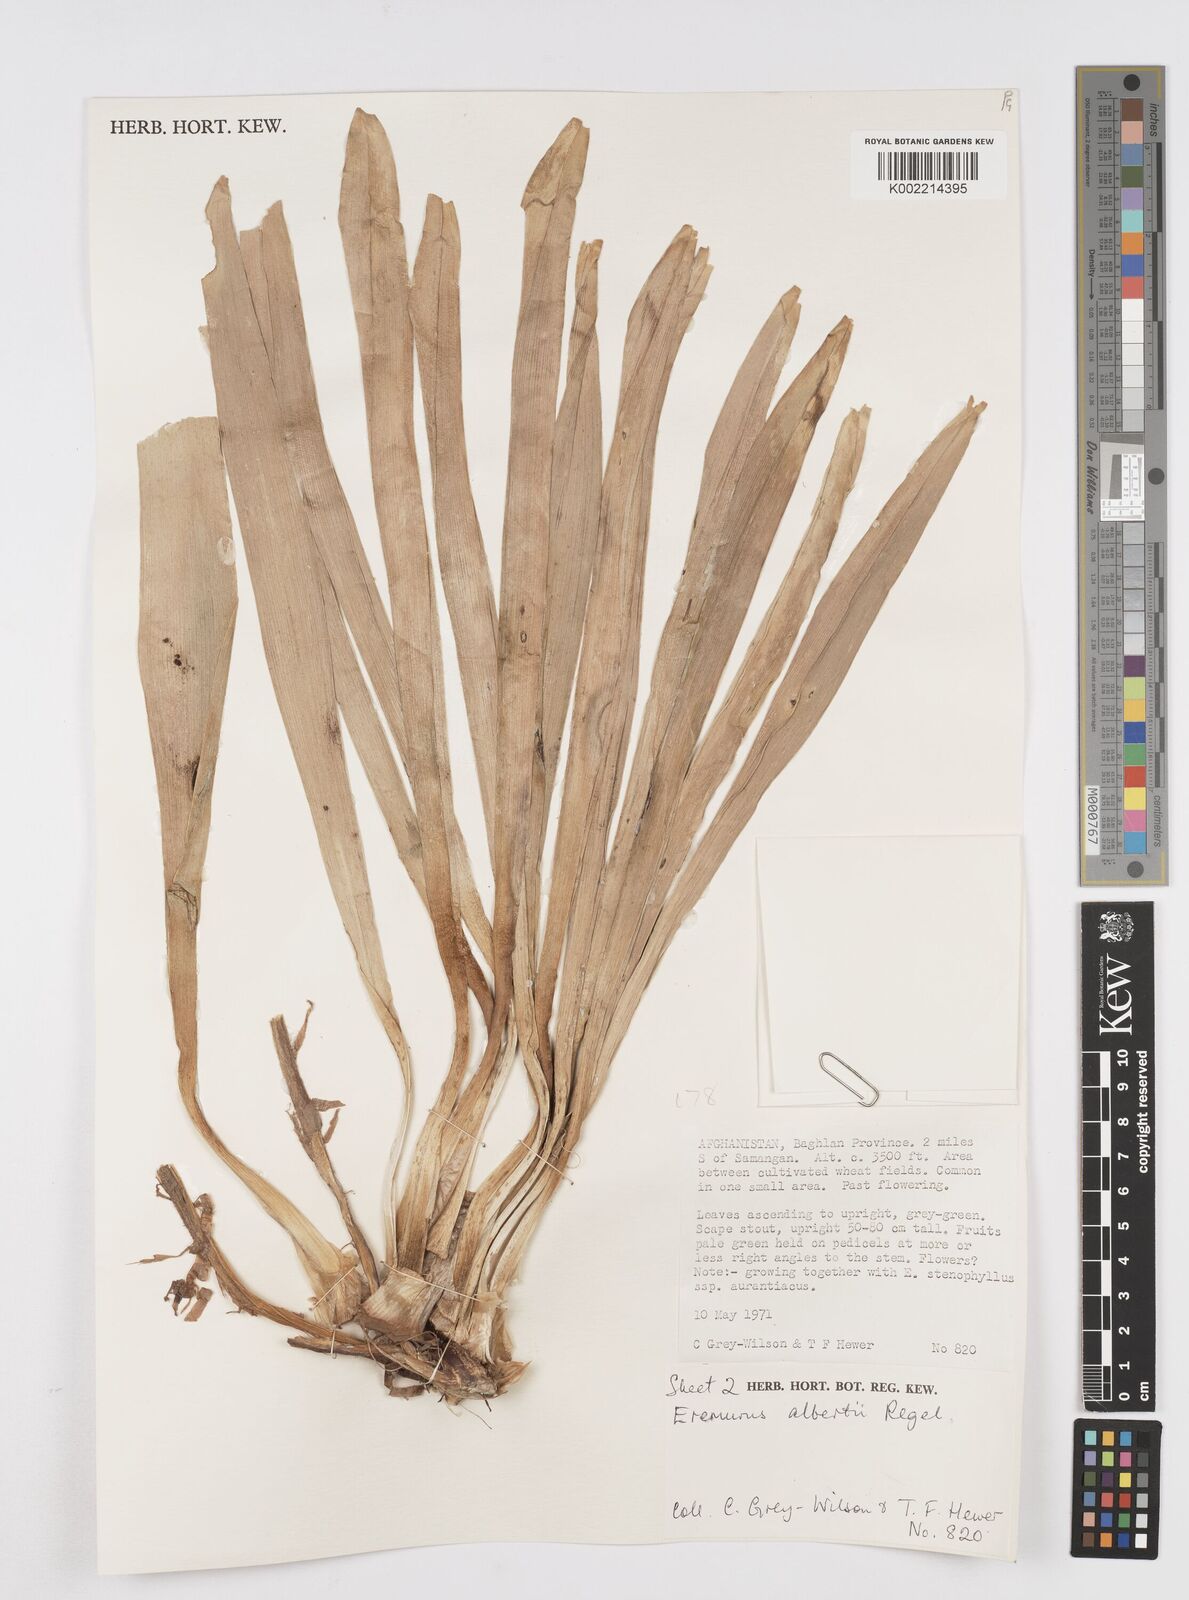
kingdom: Plantae
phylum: Tracheophyta
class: Liliopsida
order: Asparagales
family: Asphodelaceae
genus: Eremurus
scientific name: Eremurus alberti
